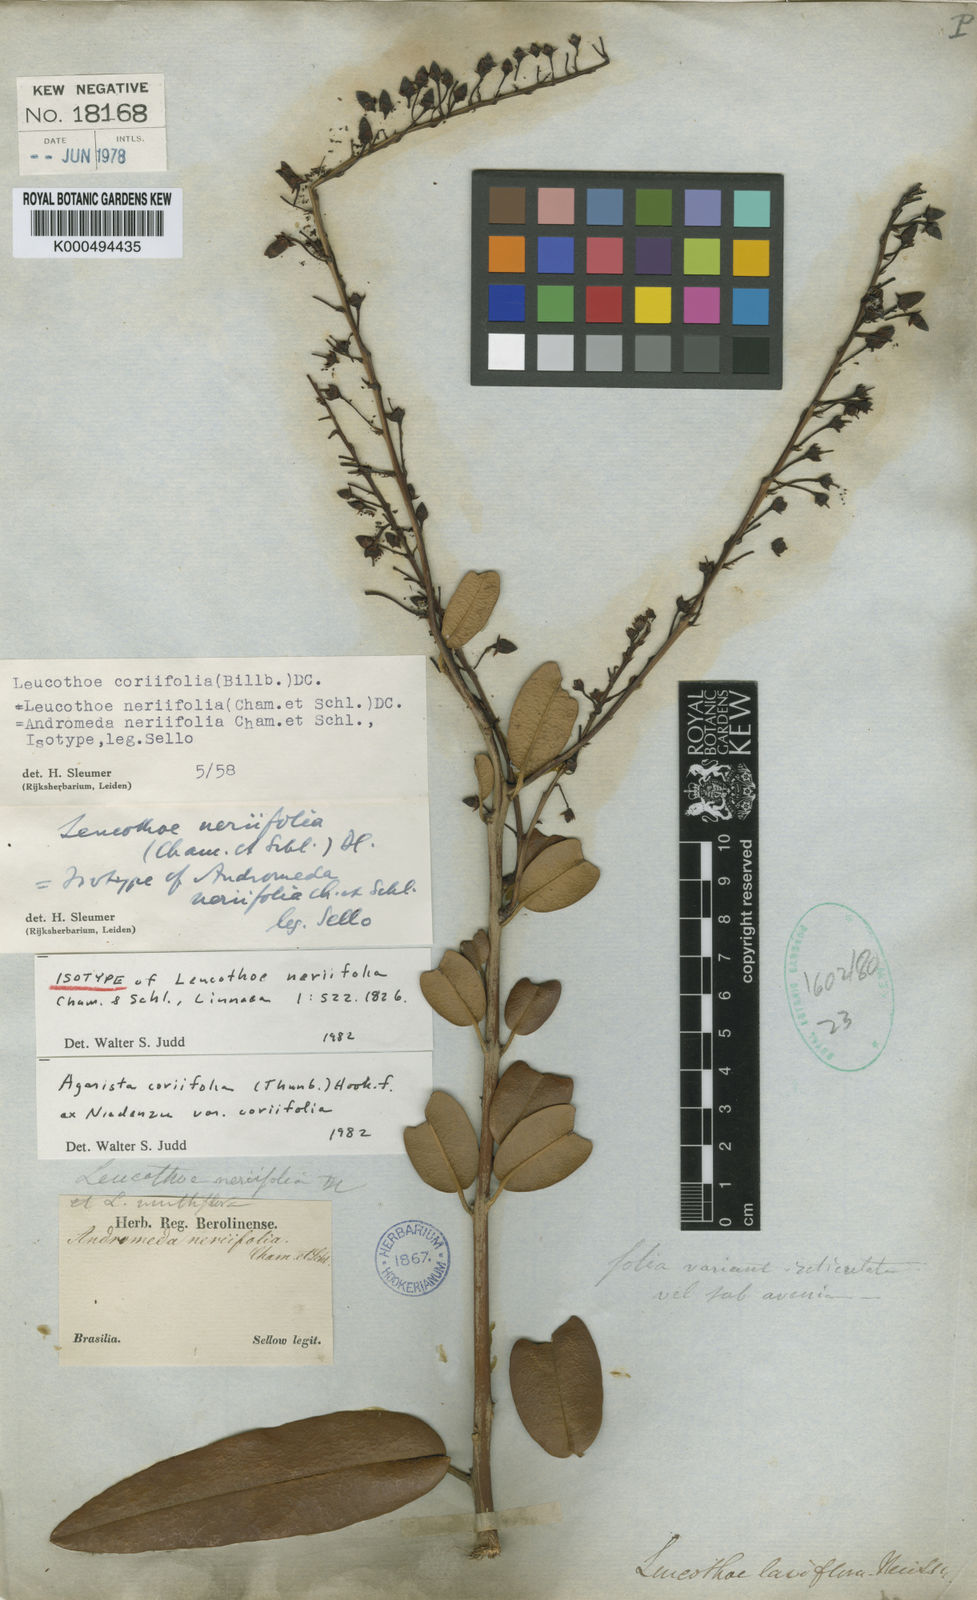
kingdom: Plantae
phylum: Tracheophyta
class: Magnoliopsida
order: Ericales
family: Ericaceae
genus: Agarista
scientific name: Agarista coriifolia
